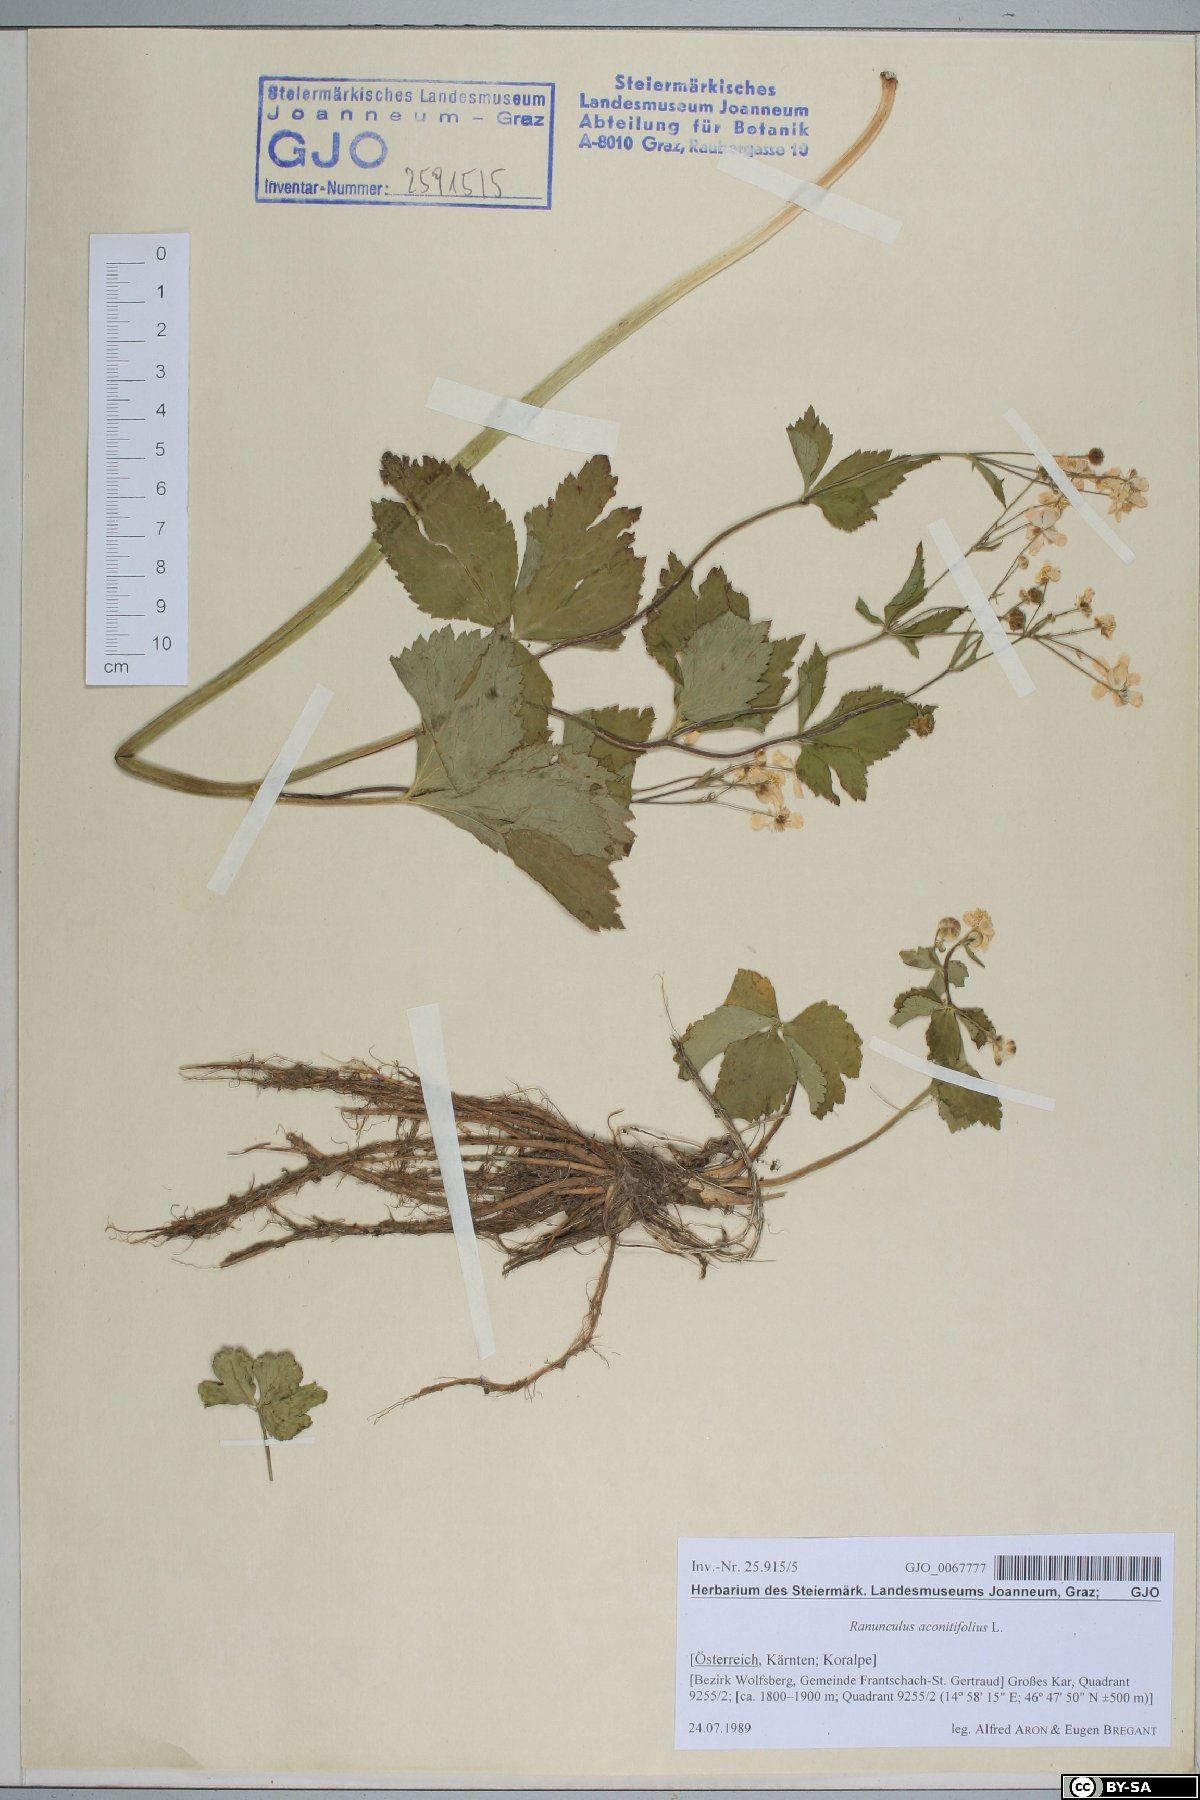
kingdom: Plantae
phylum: Tracheophyta
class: Magnoliopsida
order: Ranunculales
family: Ranunculaceae
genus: Ranunculus
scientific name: Ranunculus aconitifolius
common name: Aconite-leaved buttercup
